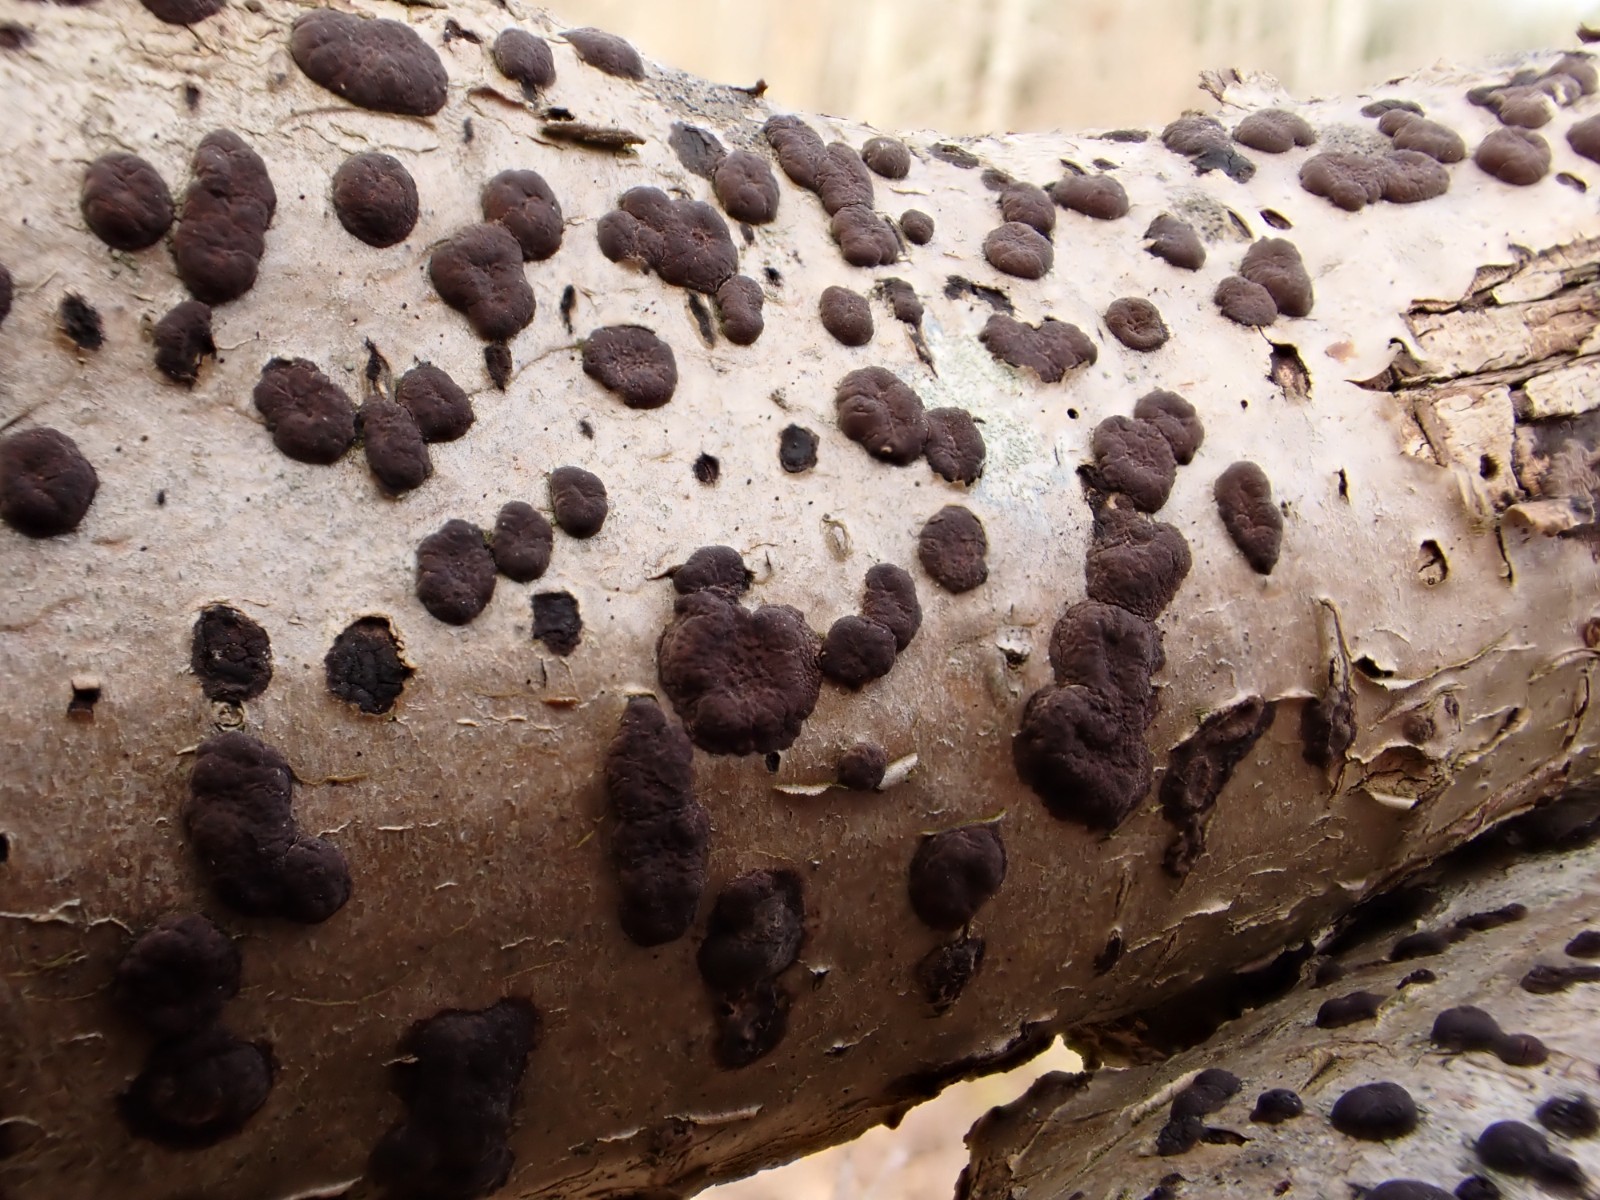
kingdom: Fungi
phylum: Ascomycota
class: Sordariomycetes
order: Xylariales
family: Hypoxylaceae
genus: Hypoxylon
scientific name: Hypoxylon fuscum
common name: kegleformet kulbær
